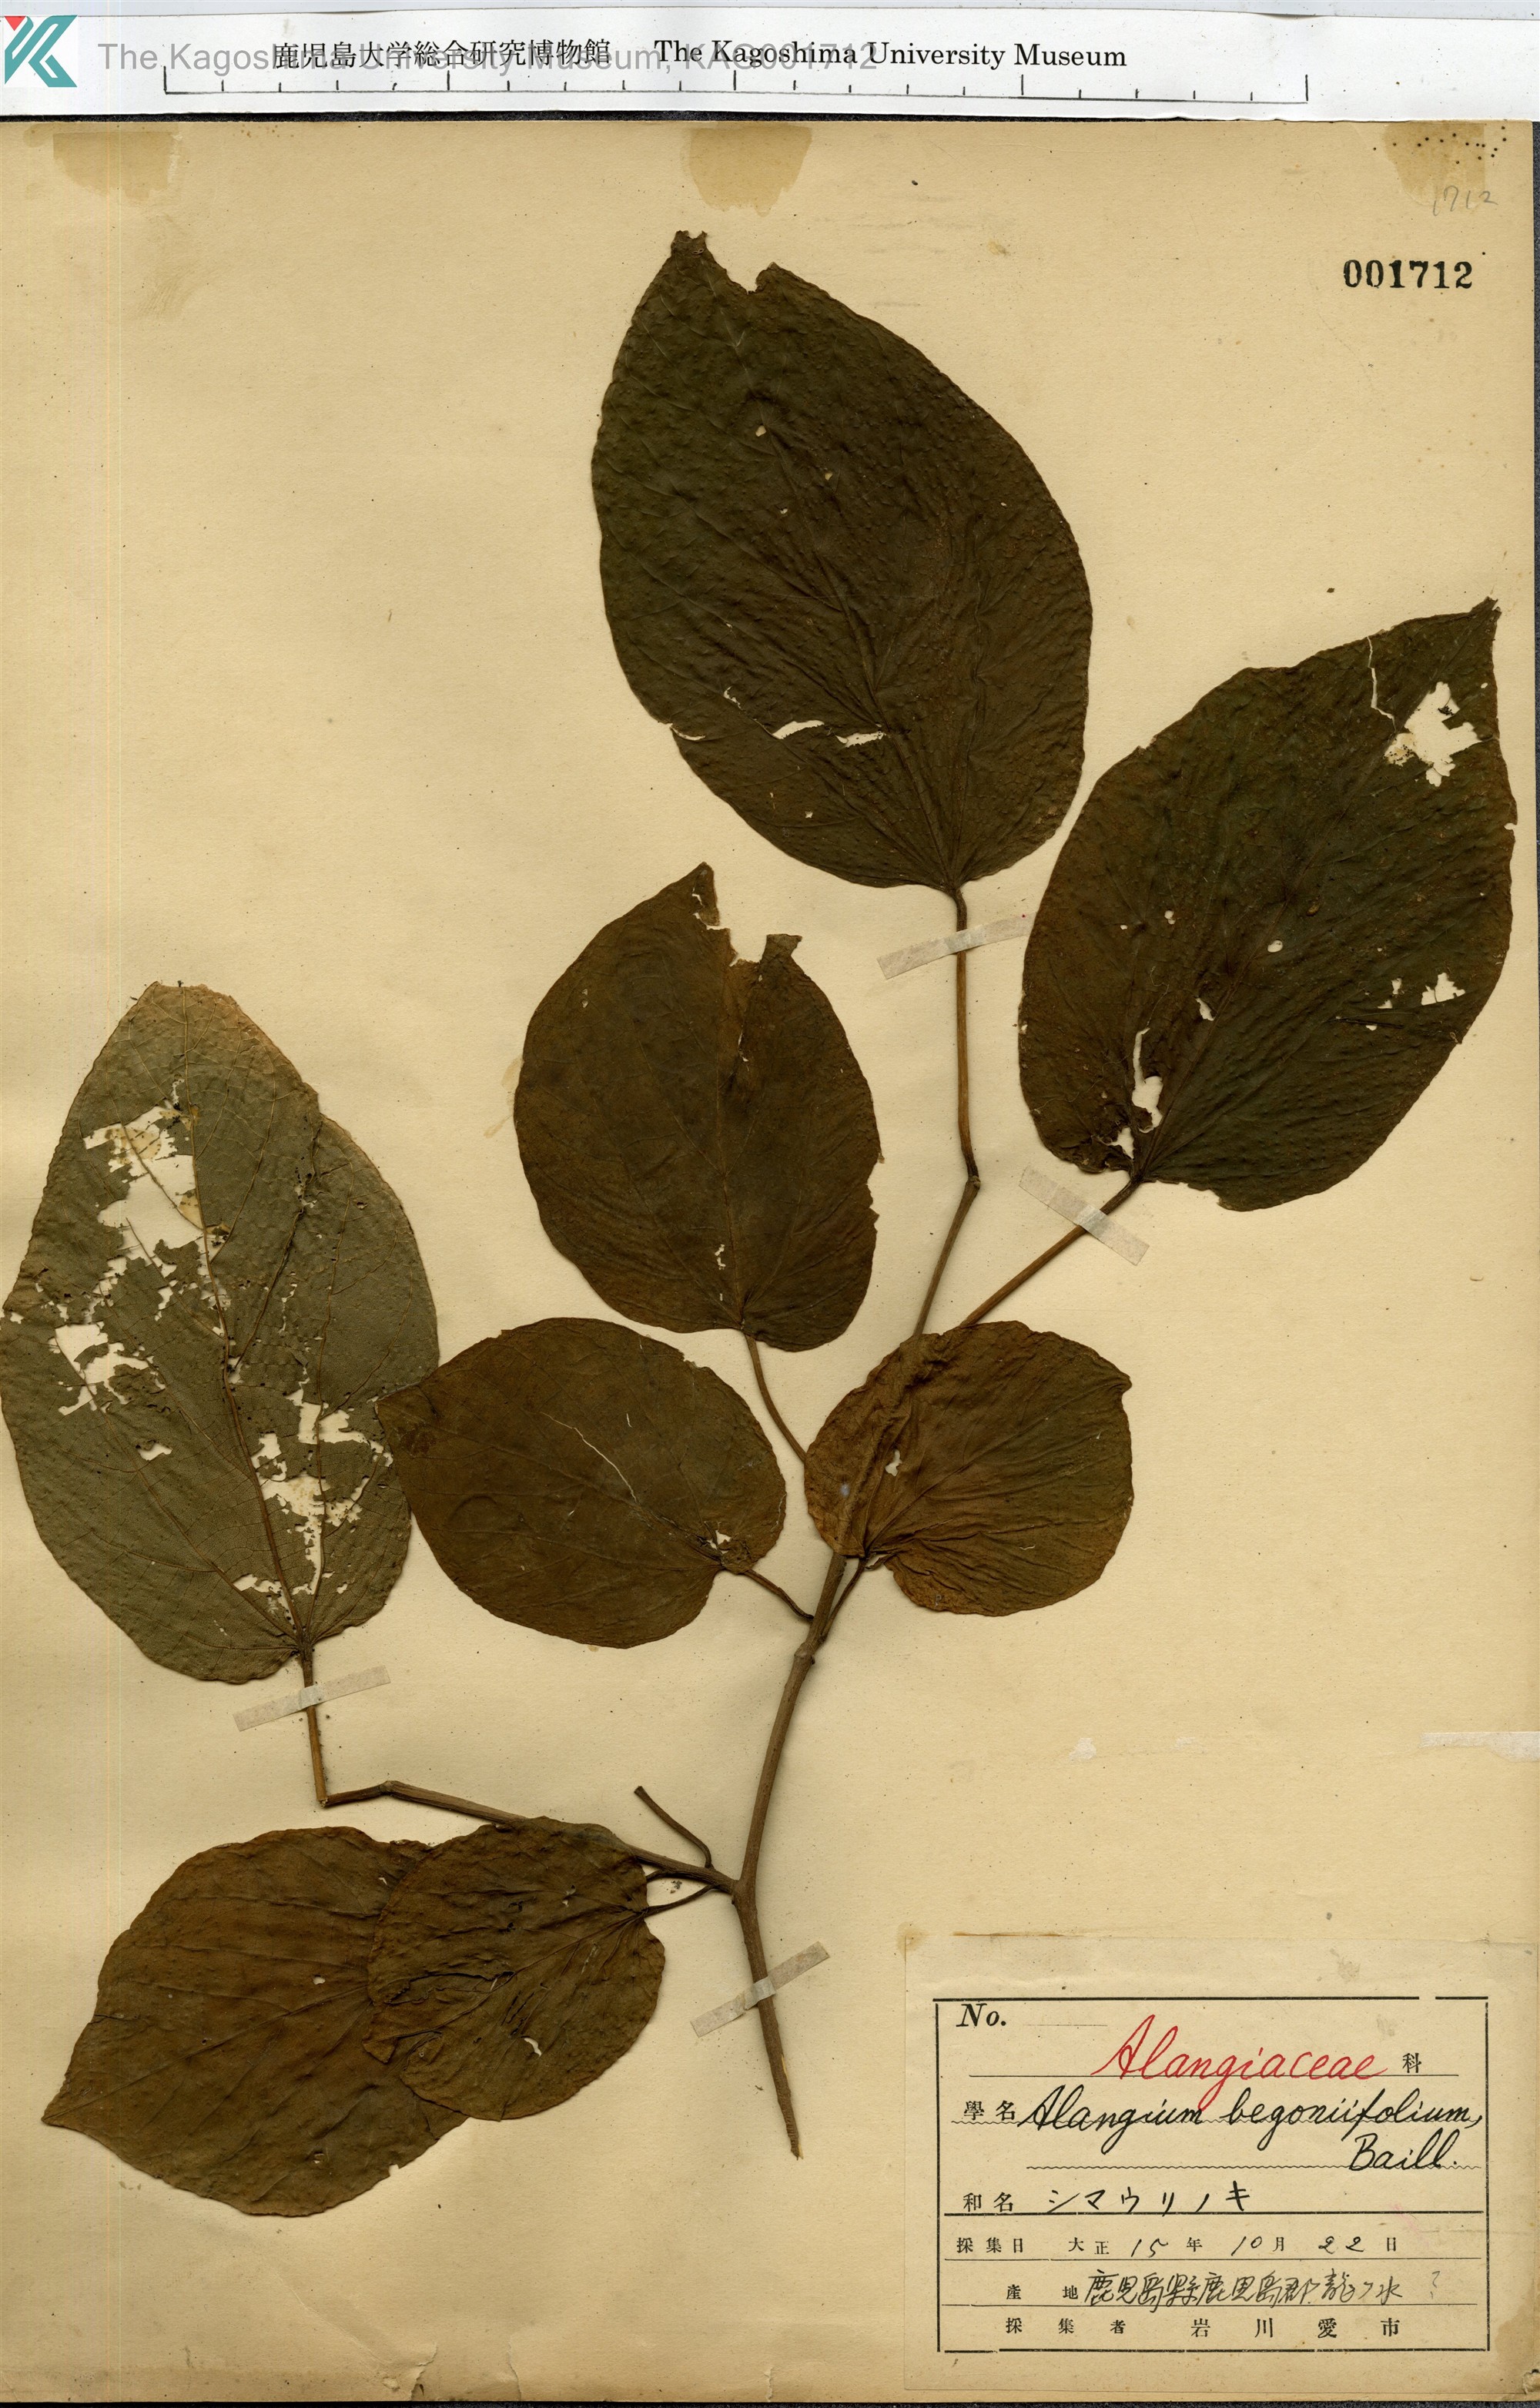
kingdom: Plantae
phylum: Tracheophyta
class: Magnoliopsida
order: Cornales
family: Cornaceae
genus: Alangium
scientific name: Alangium premnifolium
